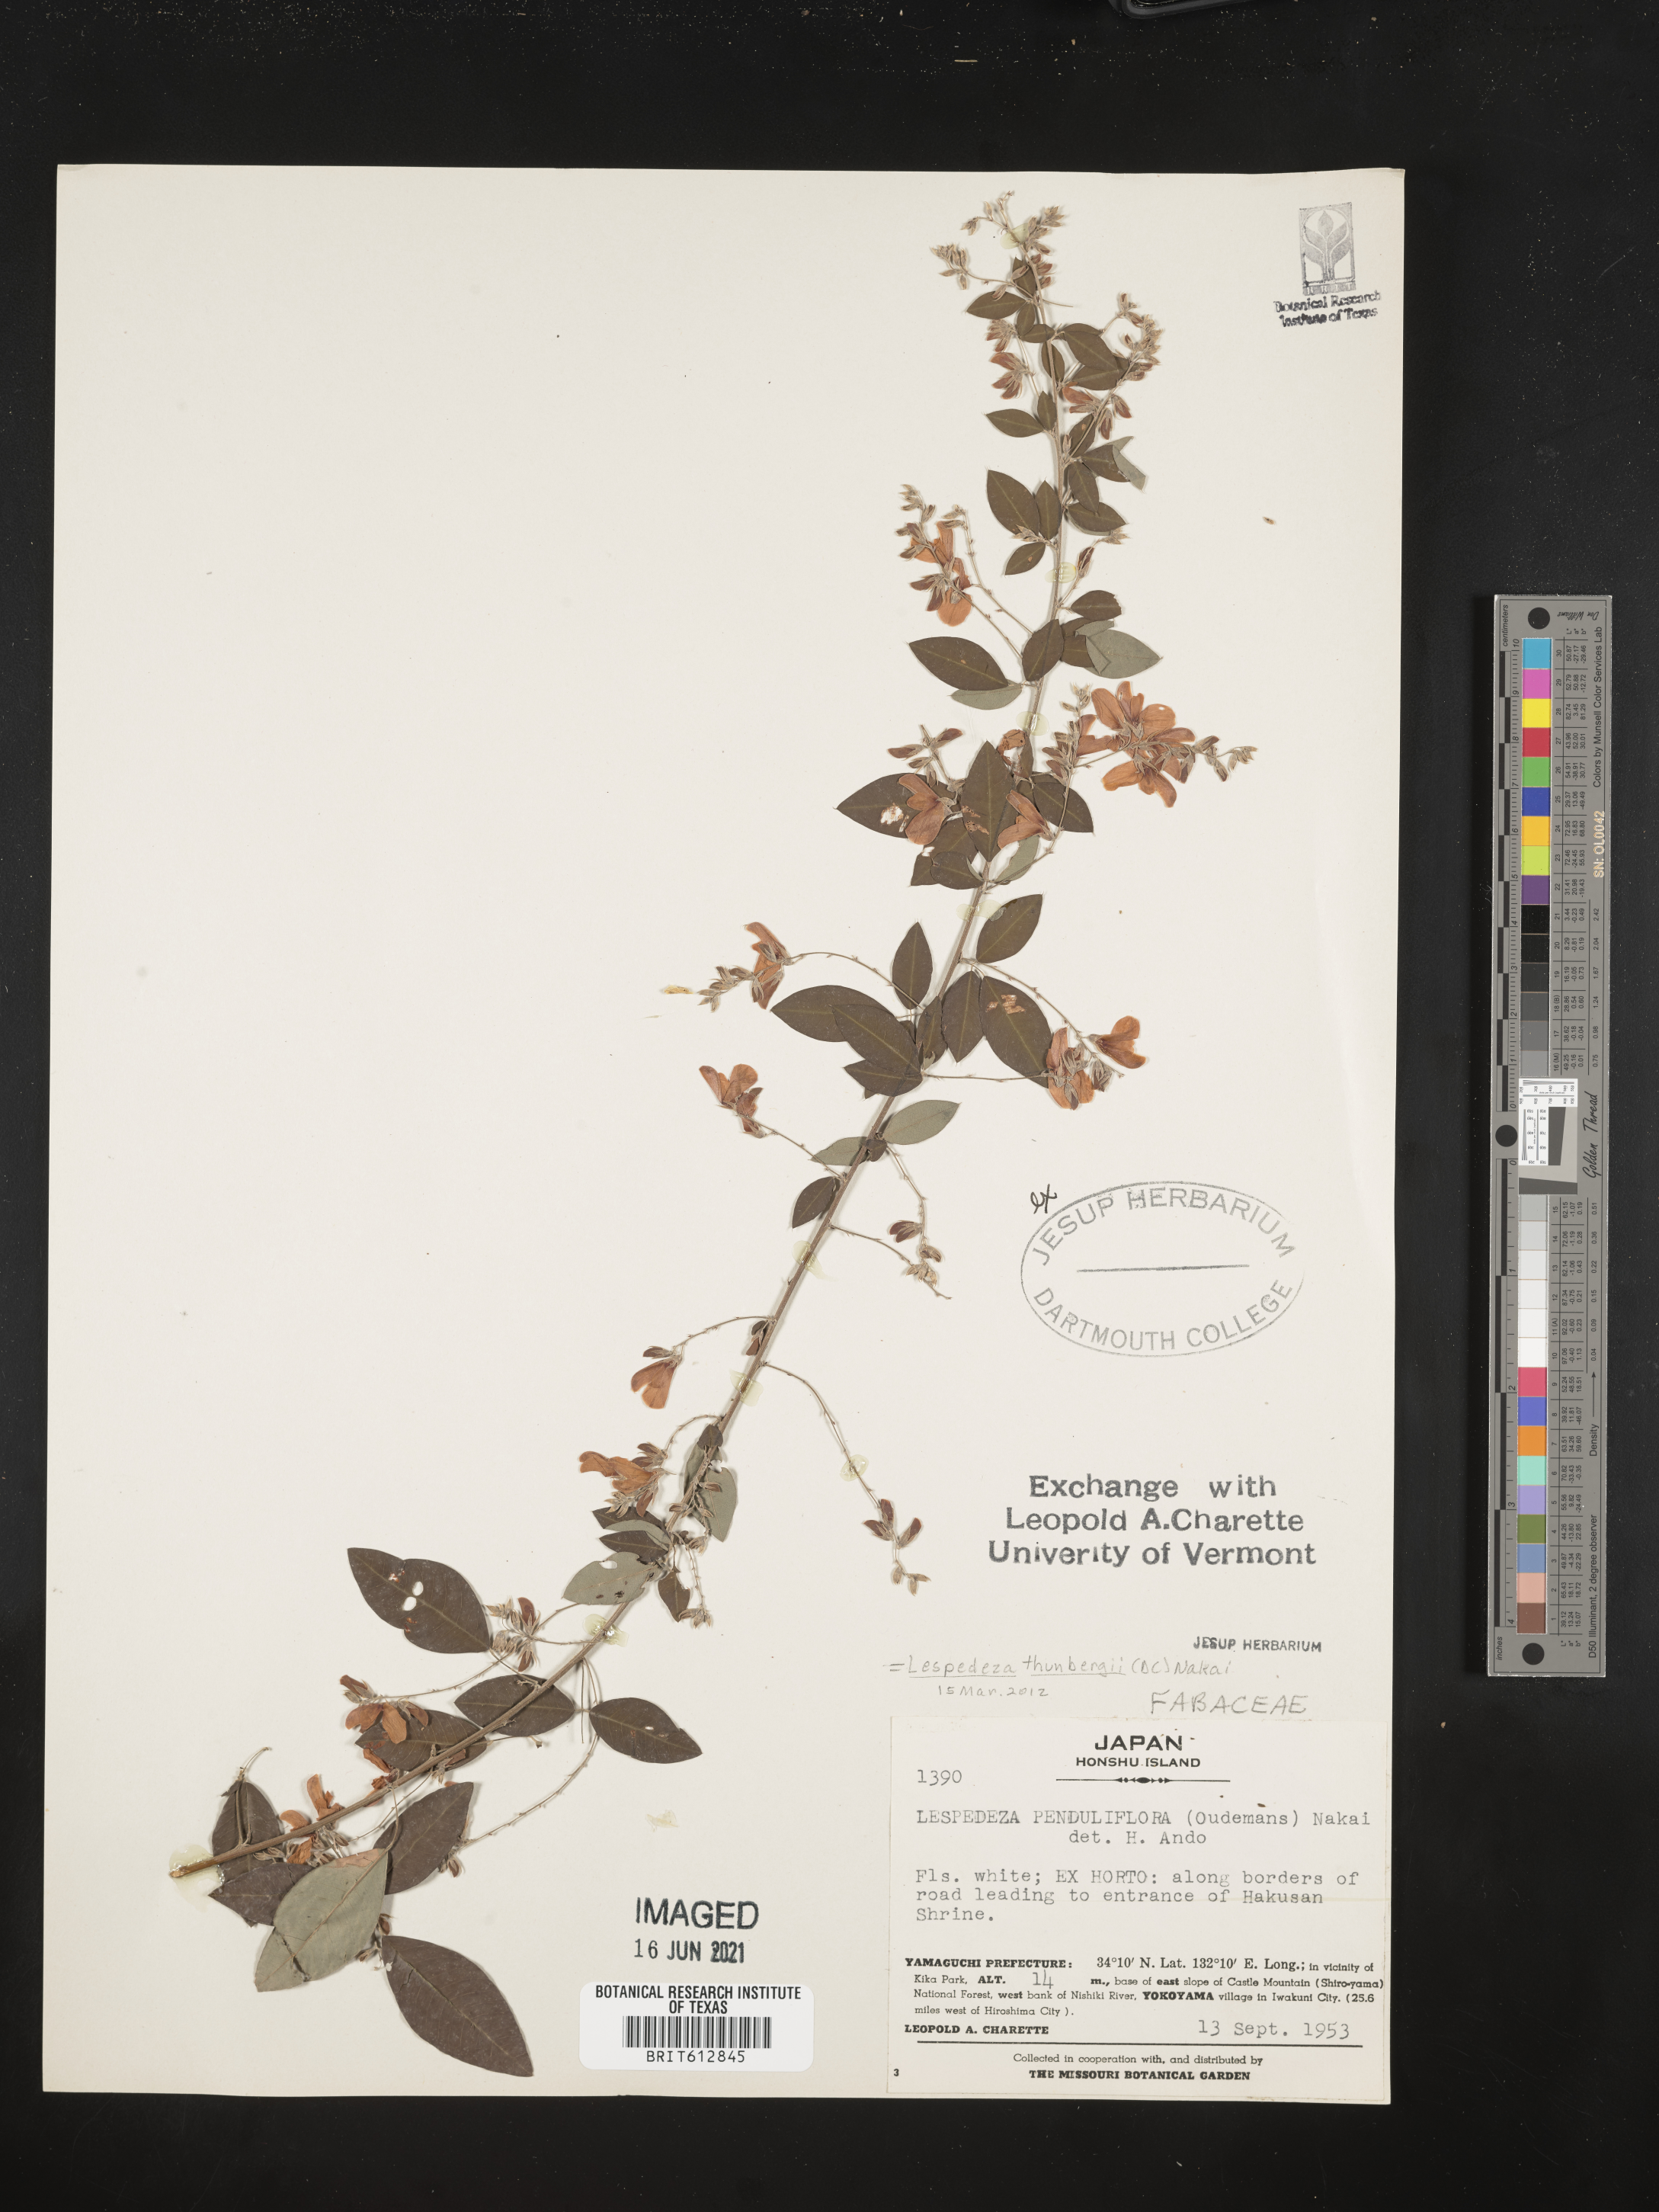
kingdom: Plantae
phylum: Tracheophyta
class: Magnoliopsida
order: Fabales
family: Fabaceae
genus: Lespedeza
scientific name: Lespedeza thunbergii
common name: Thunberg's lespedeza
